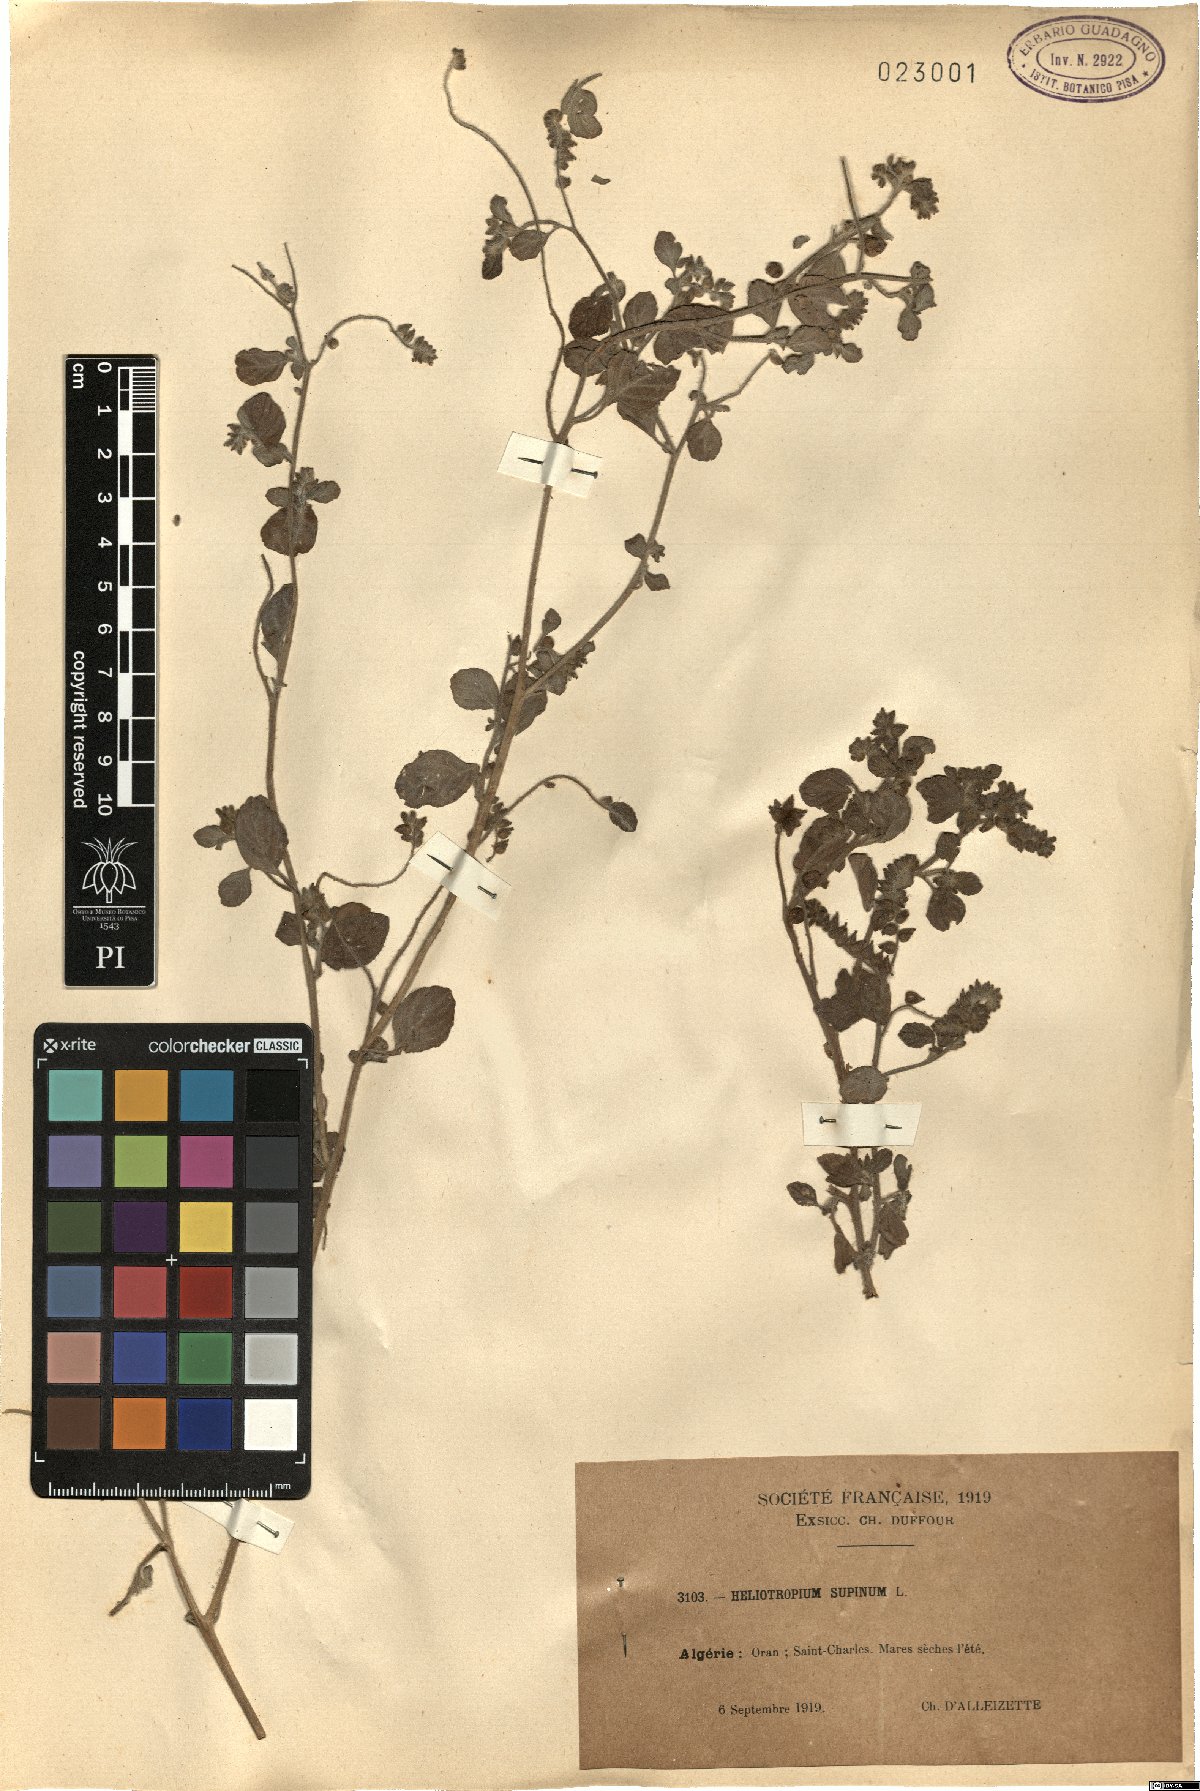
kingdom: Plantae
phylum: Tracheophyta
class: Magnoliopsida
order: Boraginales
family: Heliotropiaceae
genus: Heliotropium
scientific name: Heliotropium supinum
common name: Dwarf heliotrope
